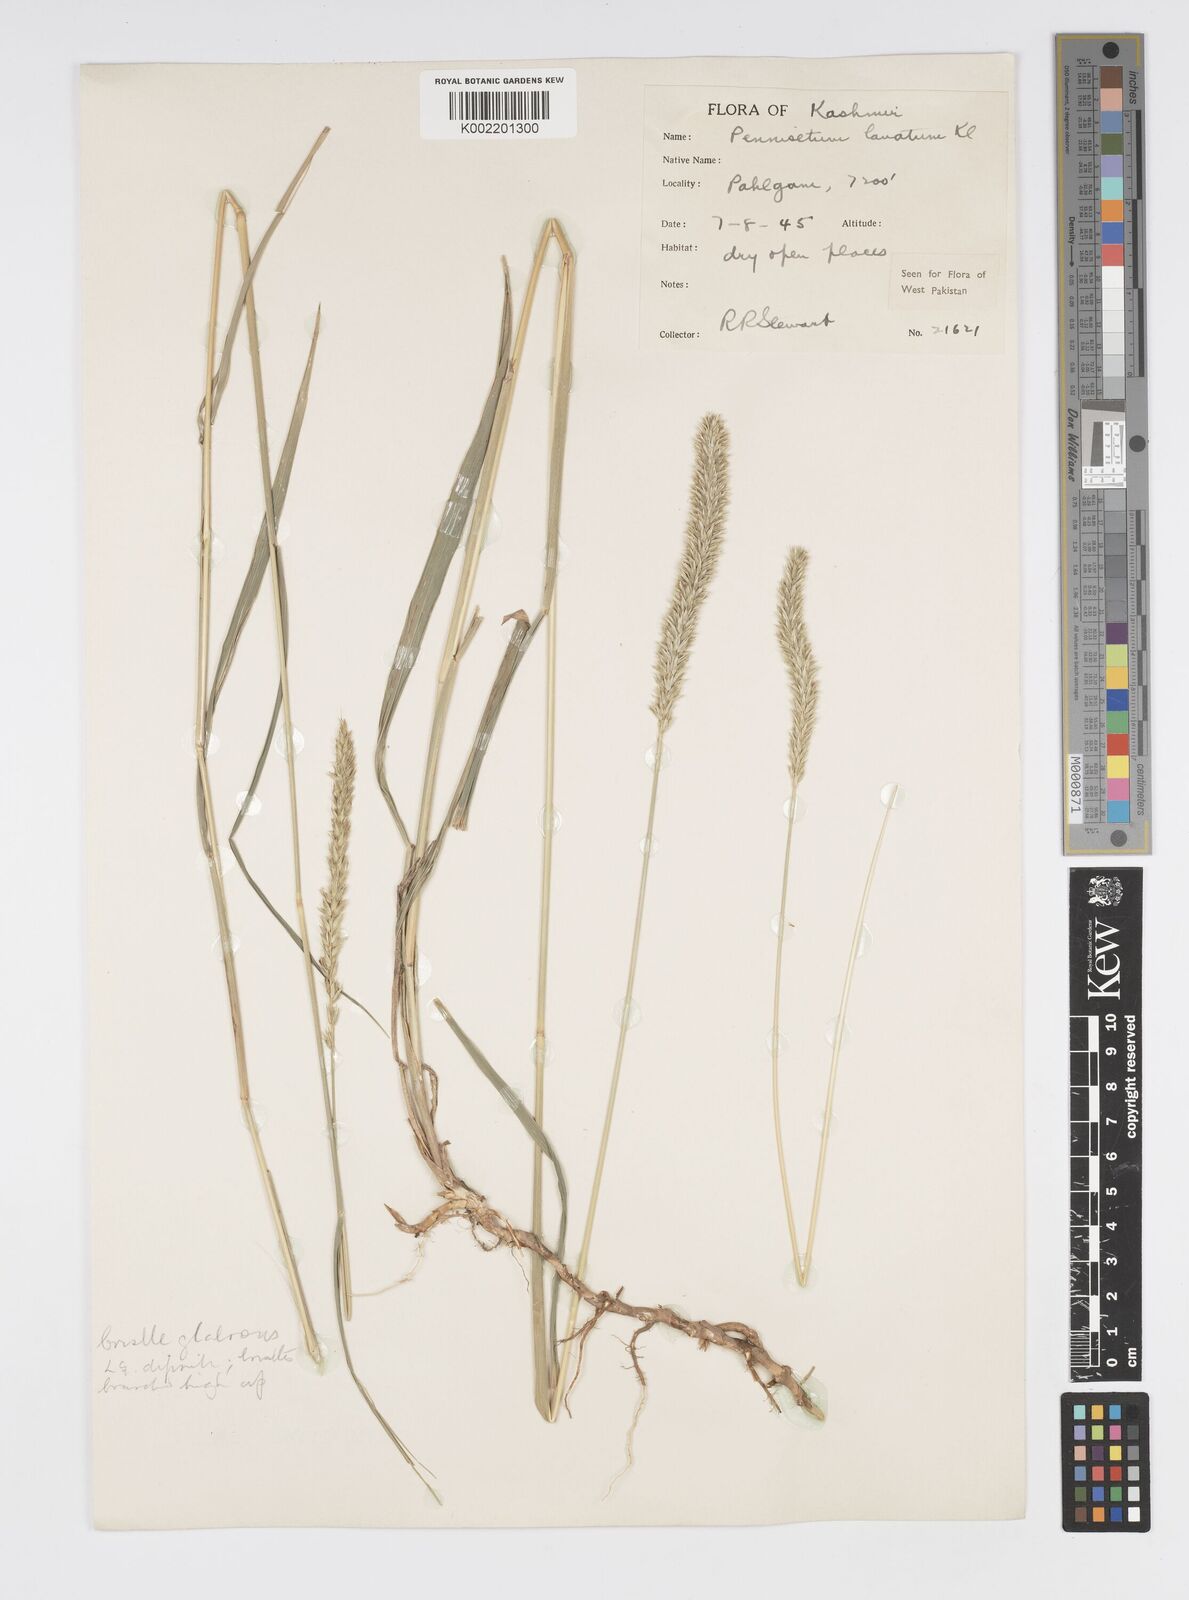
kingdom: Plantae
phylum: Tracheophyta
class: Liliopsida
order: Poales
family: Poaceae
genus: Cenchrus
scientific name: Cenchrus lanatus
